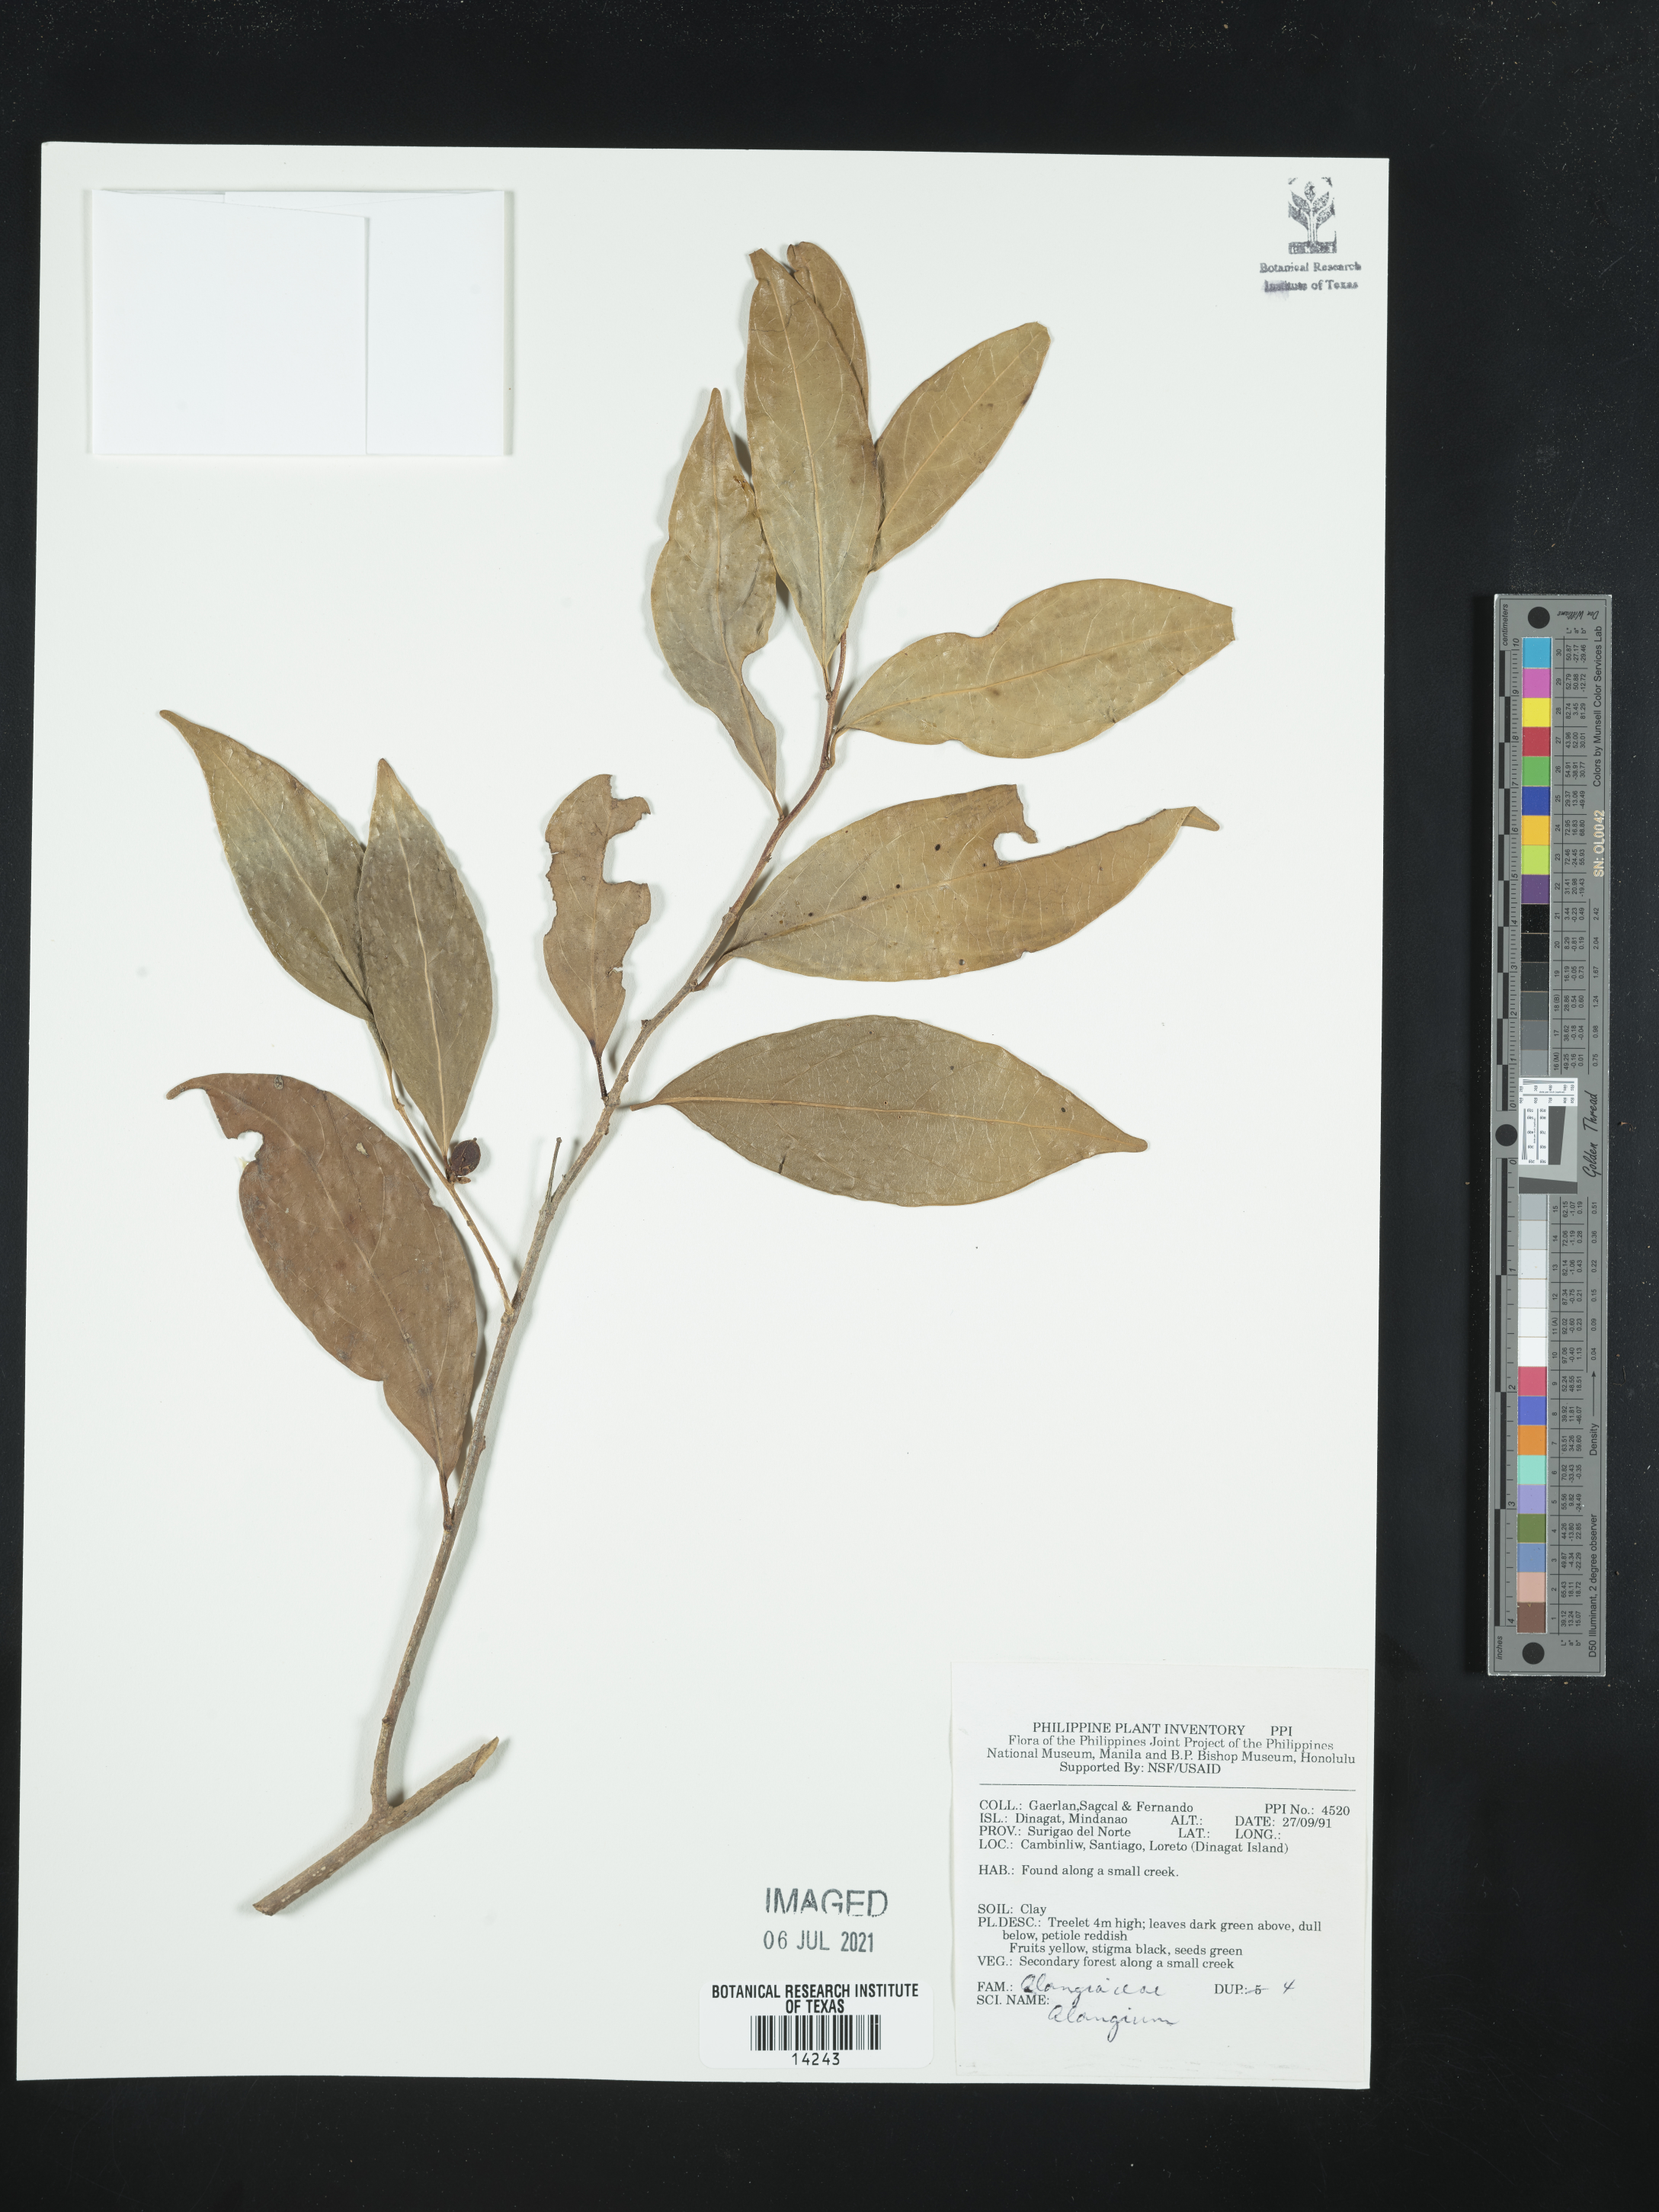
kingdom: Plantae
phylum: Tracheophyta
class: Magnoliopsida
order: Cornales
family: Cornaceae
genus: Alangium
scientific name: Alangium
